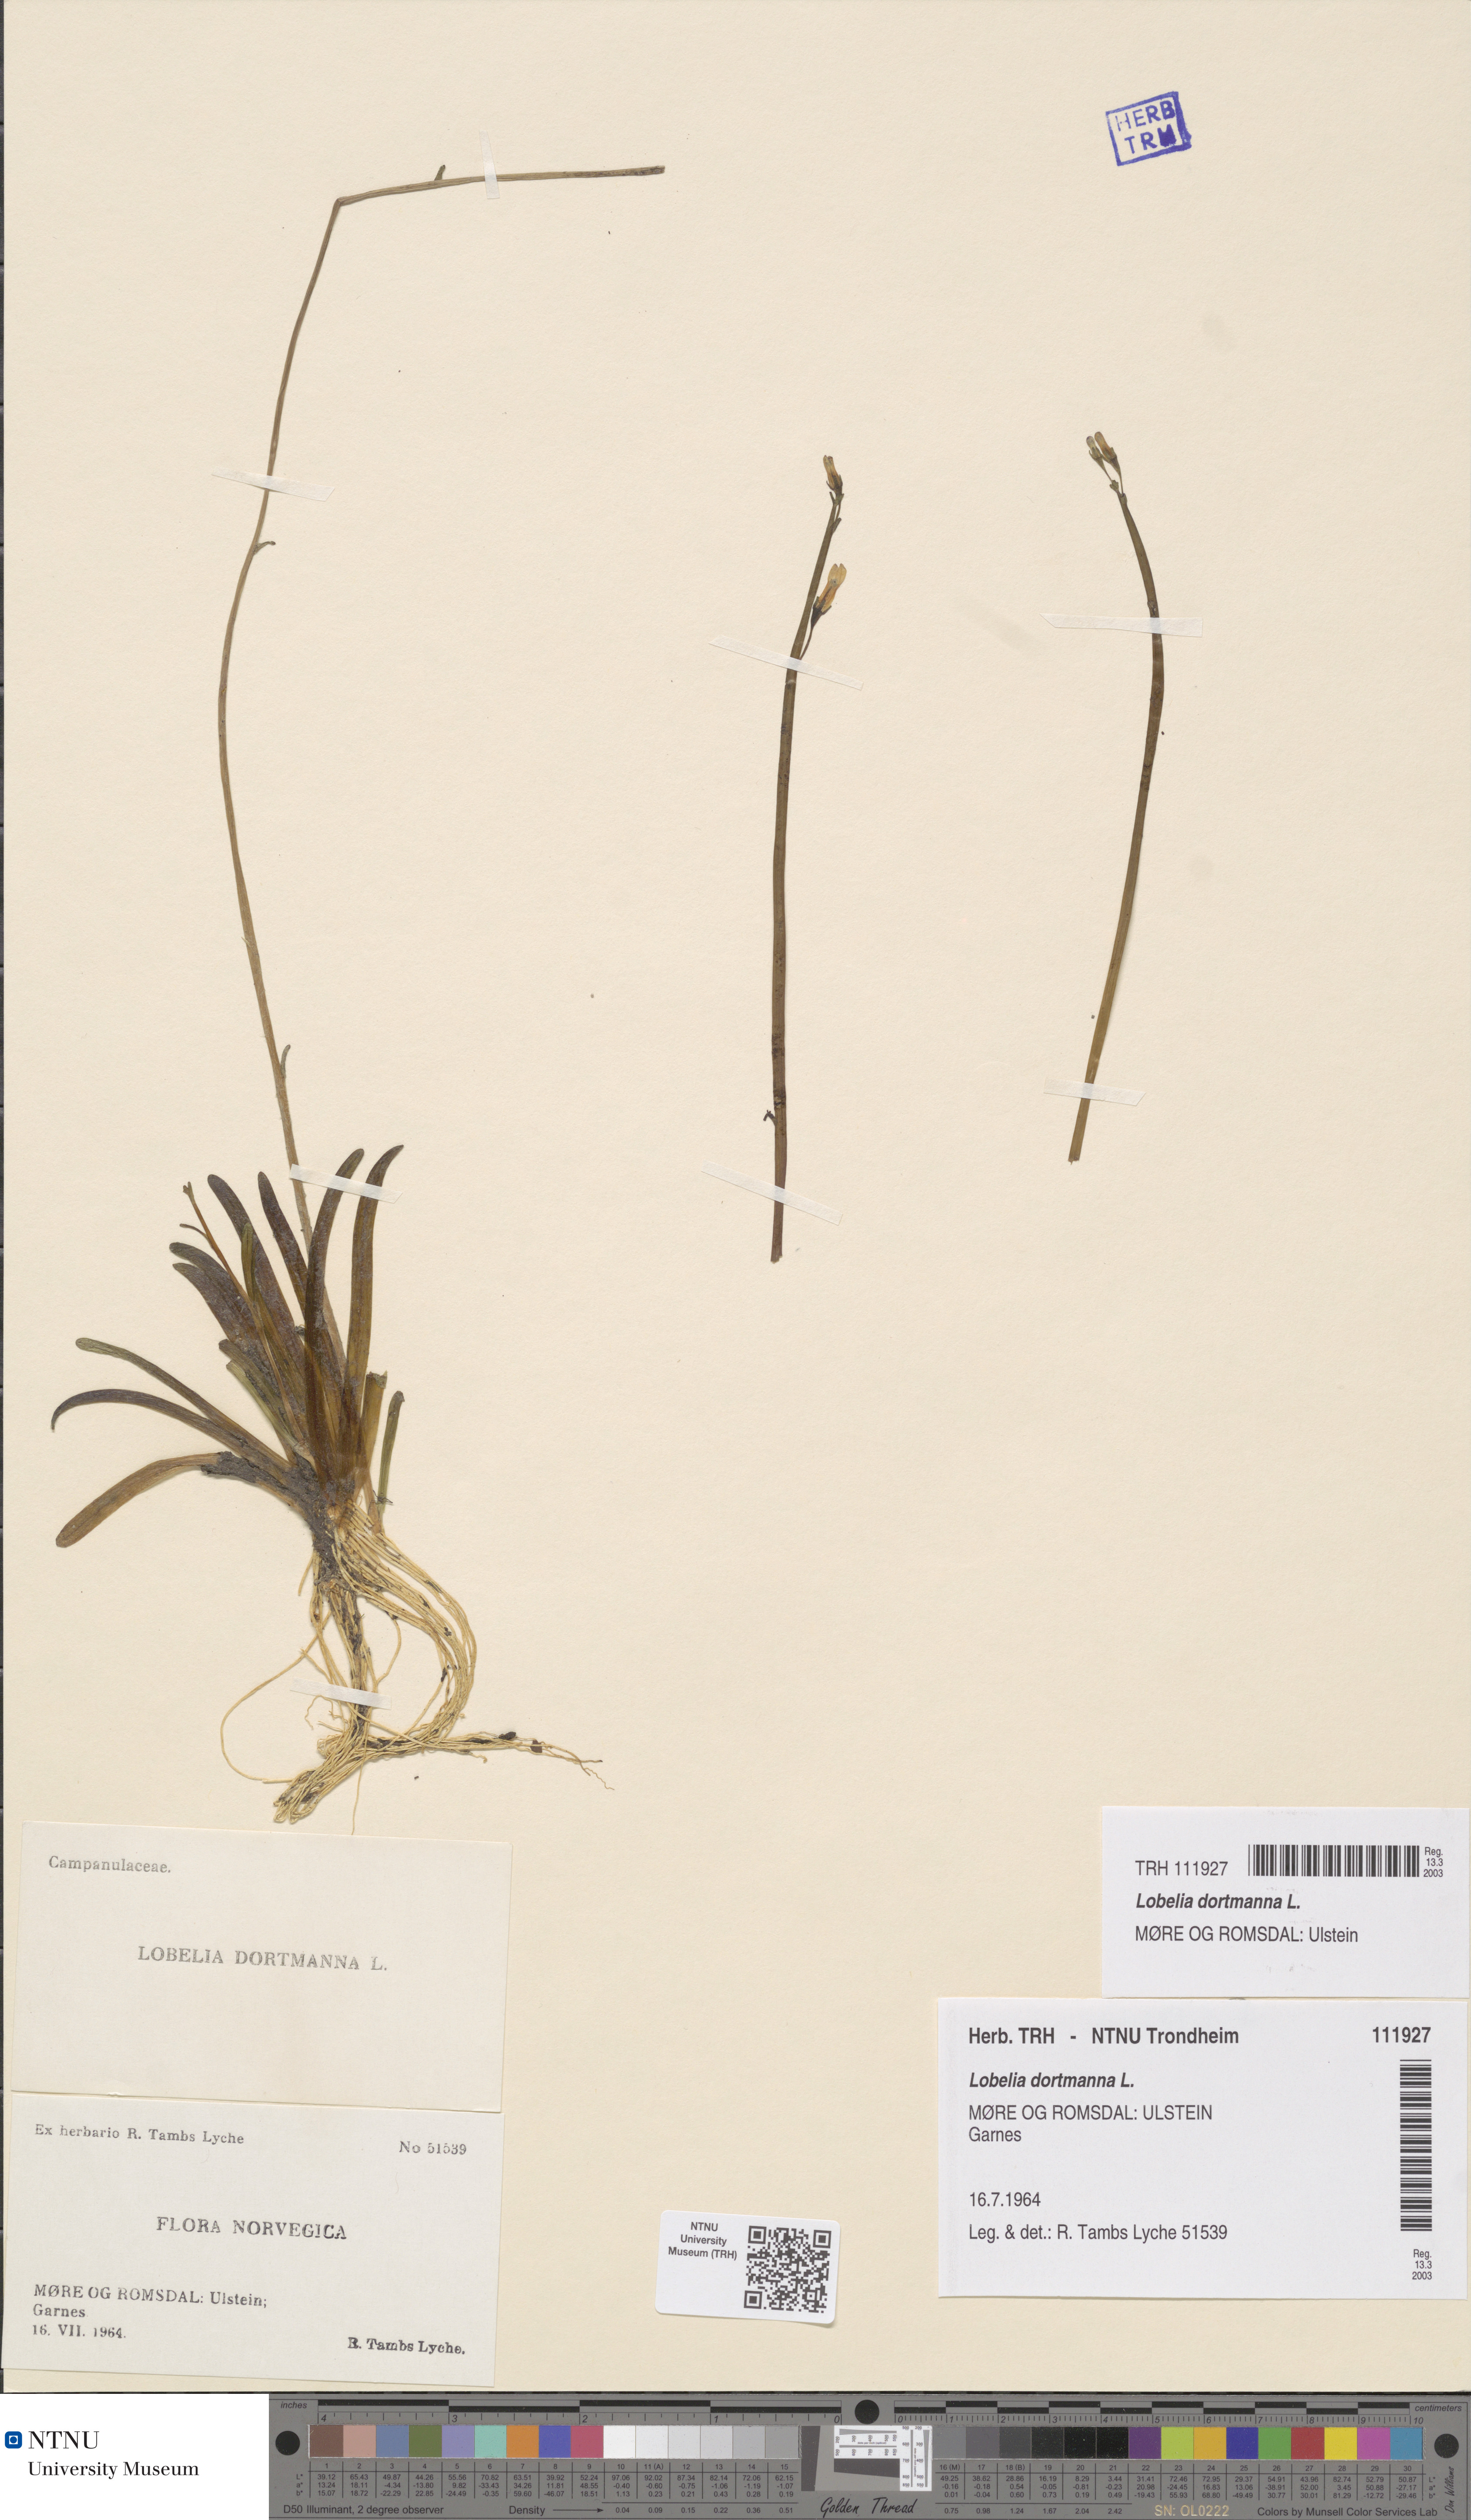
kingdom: Plantae
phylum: Tracheophyta
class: Magnoliopsida
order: Asterales
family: Campanulaceae
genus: Lobelia
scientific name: Lobelia dortmanna
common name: Water lobelia
